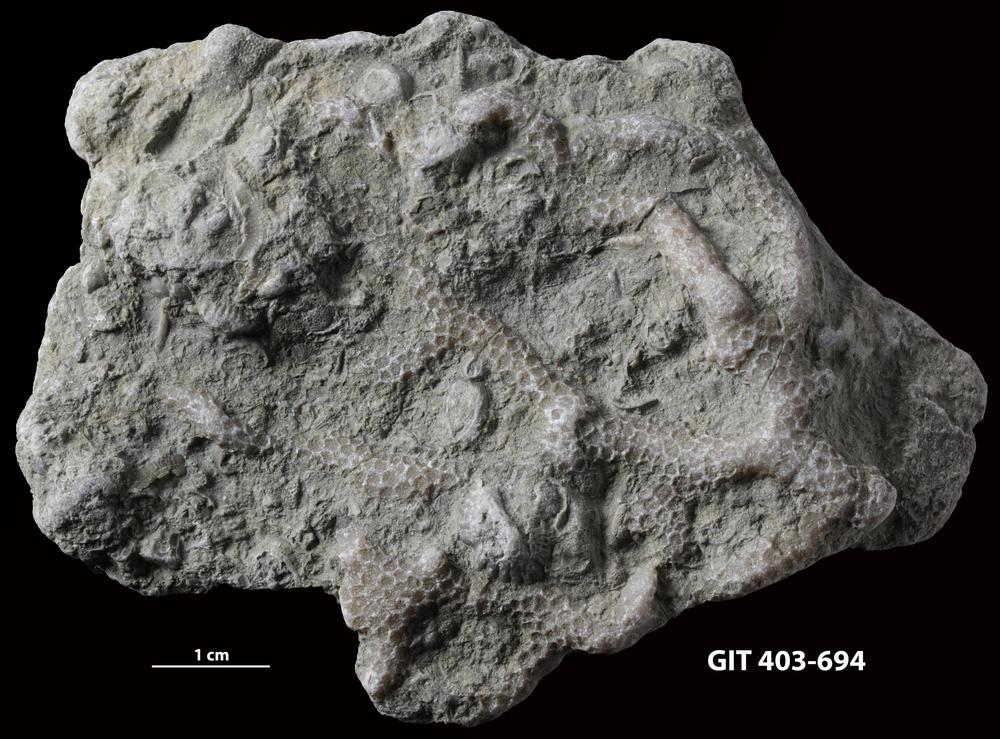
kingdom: Animalia
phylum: Cnidaria
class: Anthozoa
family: Pachyporidae
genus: Parastriatopora
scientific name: Parastriatopora
